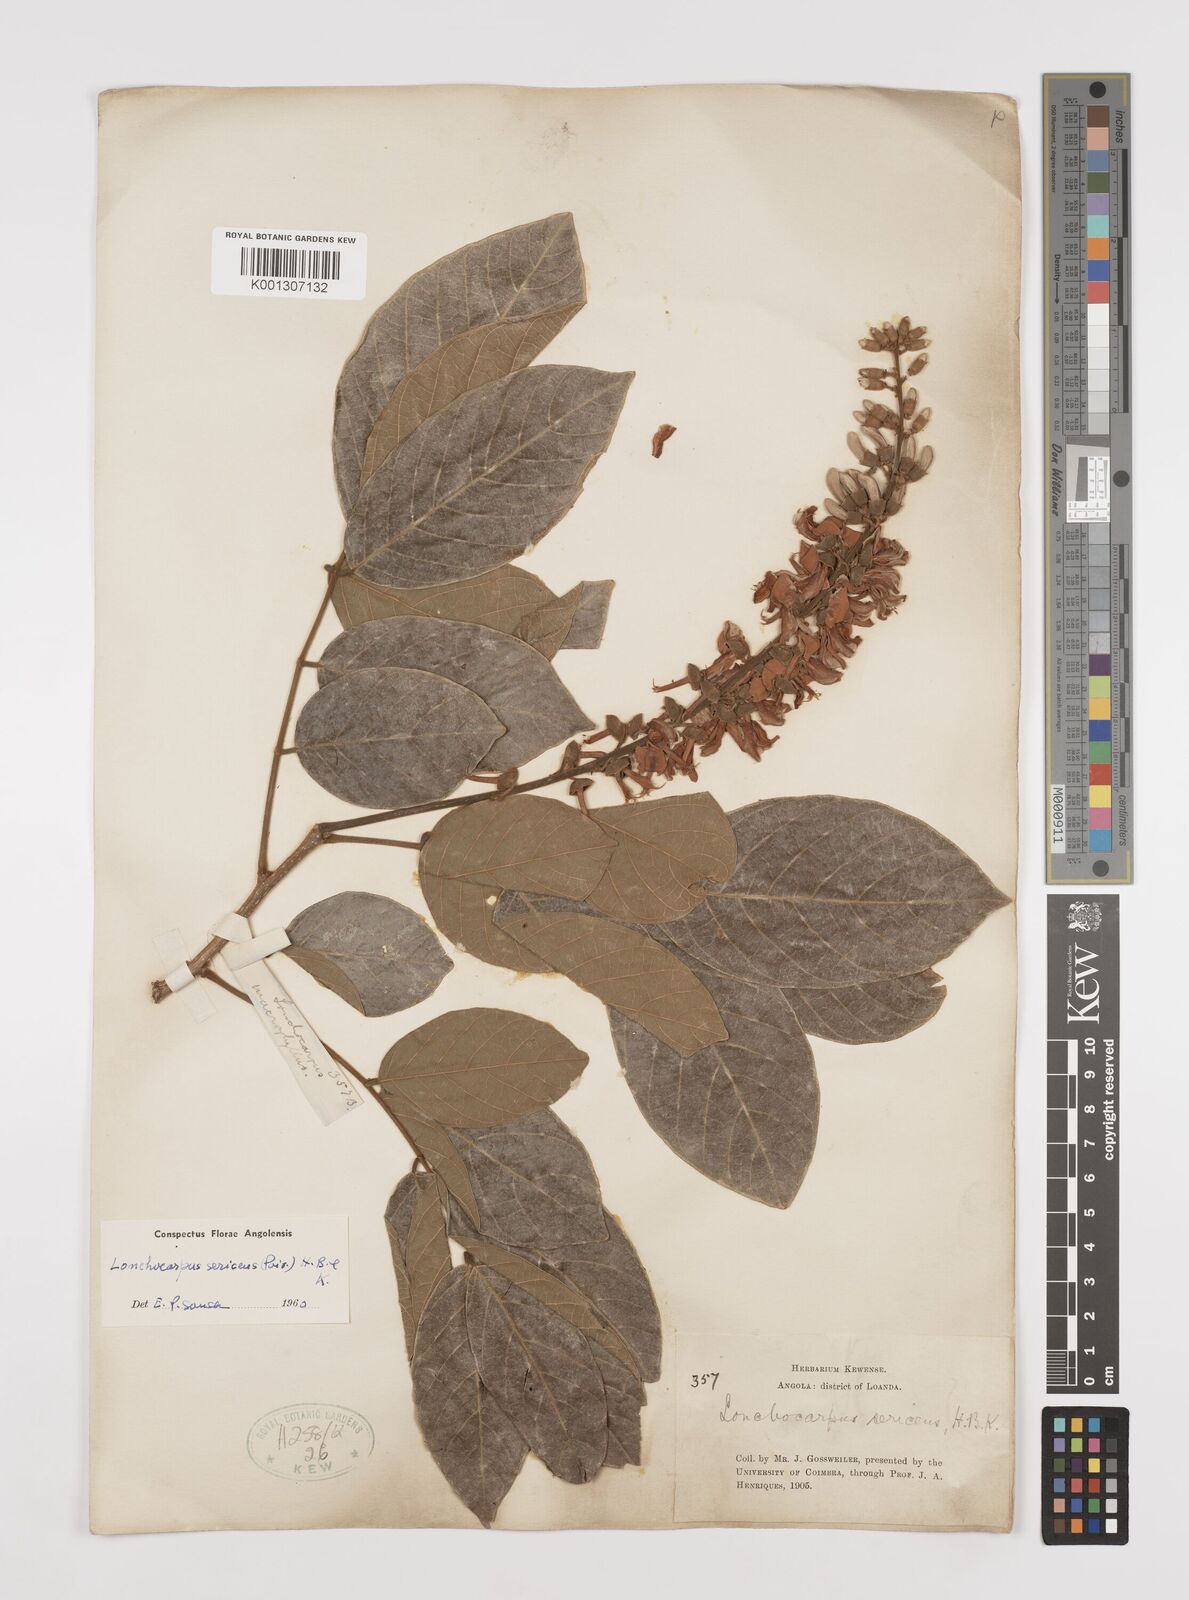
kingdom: Plantae
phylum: Tracheophyta
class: Magnoliopsida
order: Fabales
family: Fabaceae
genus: Lonchocarpus
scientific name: Lonchocarpus sericeus
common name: Savonette
